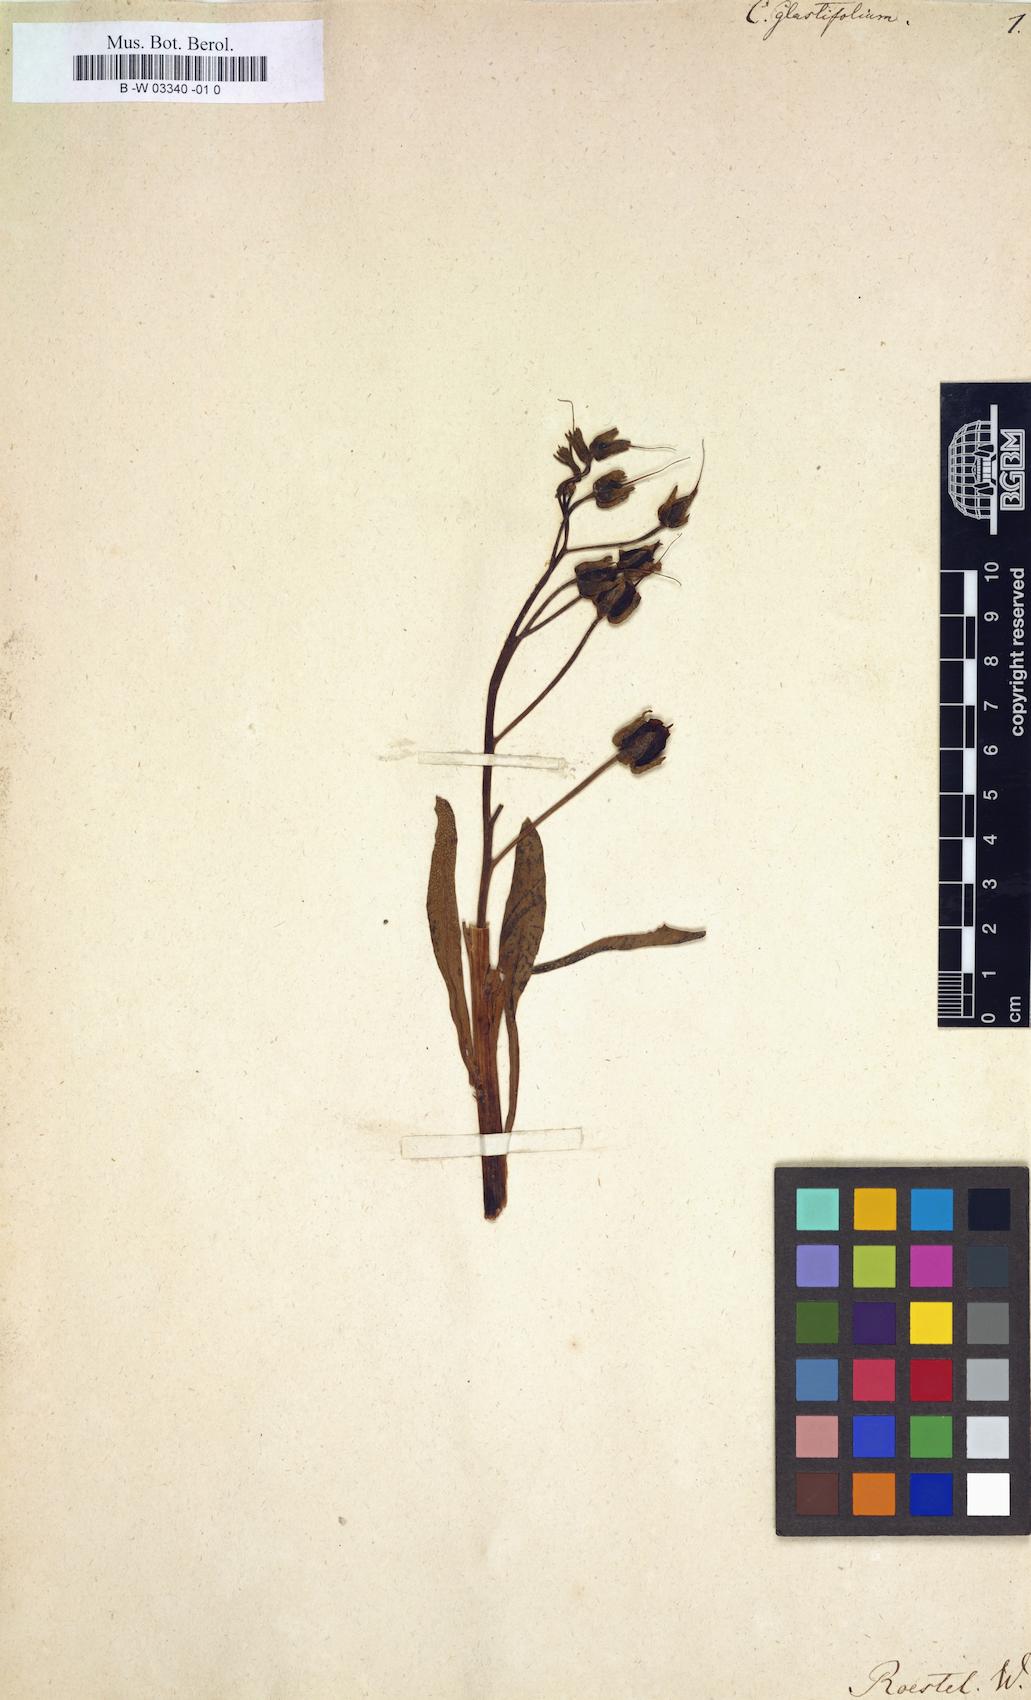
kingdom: Plantae
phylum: Tracheophyta
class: Magnoliopsida
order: Boraginales
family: Boraginaceae
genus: Paracaryum
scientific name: Paracaryum glastifolium
